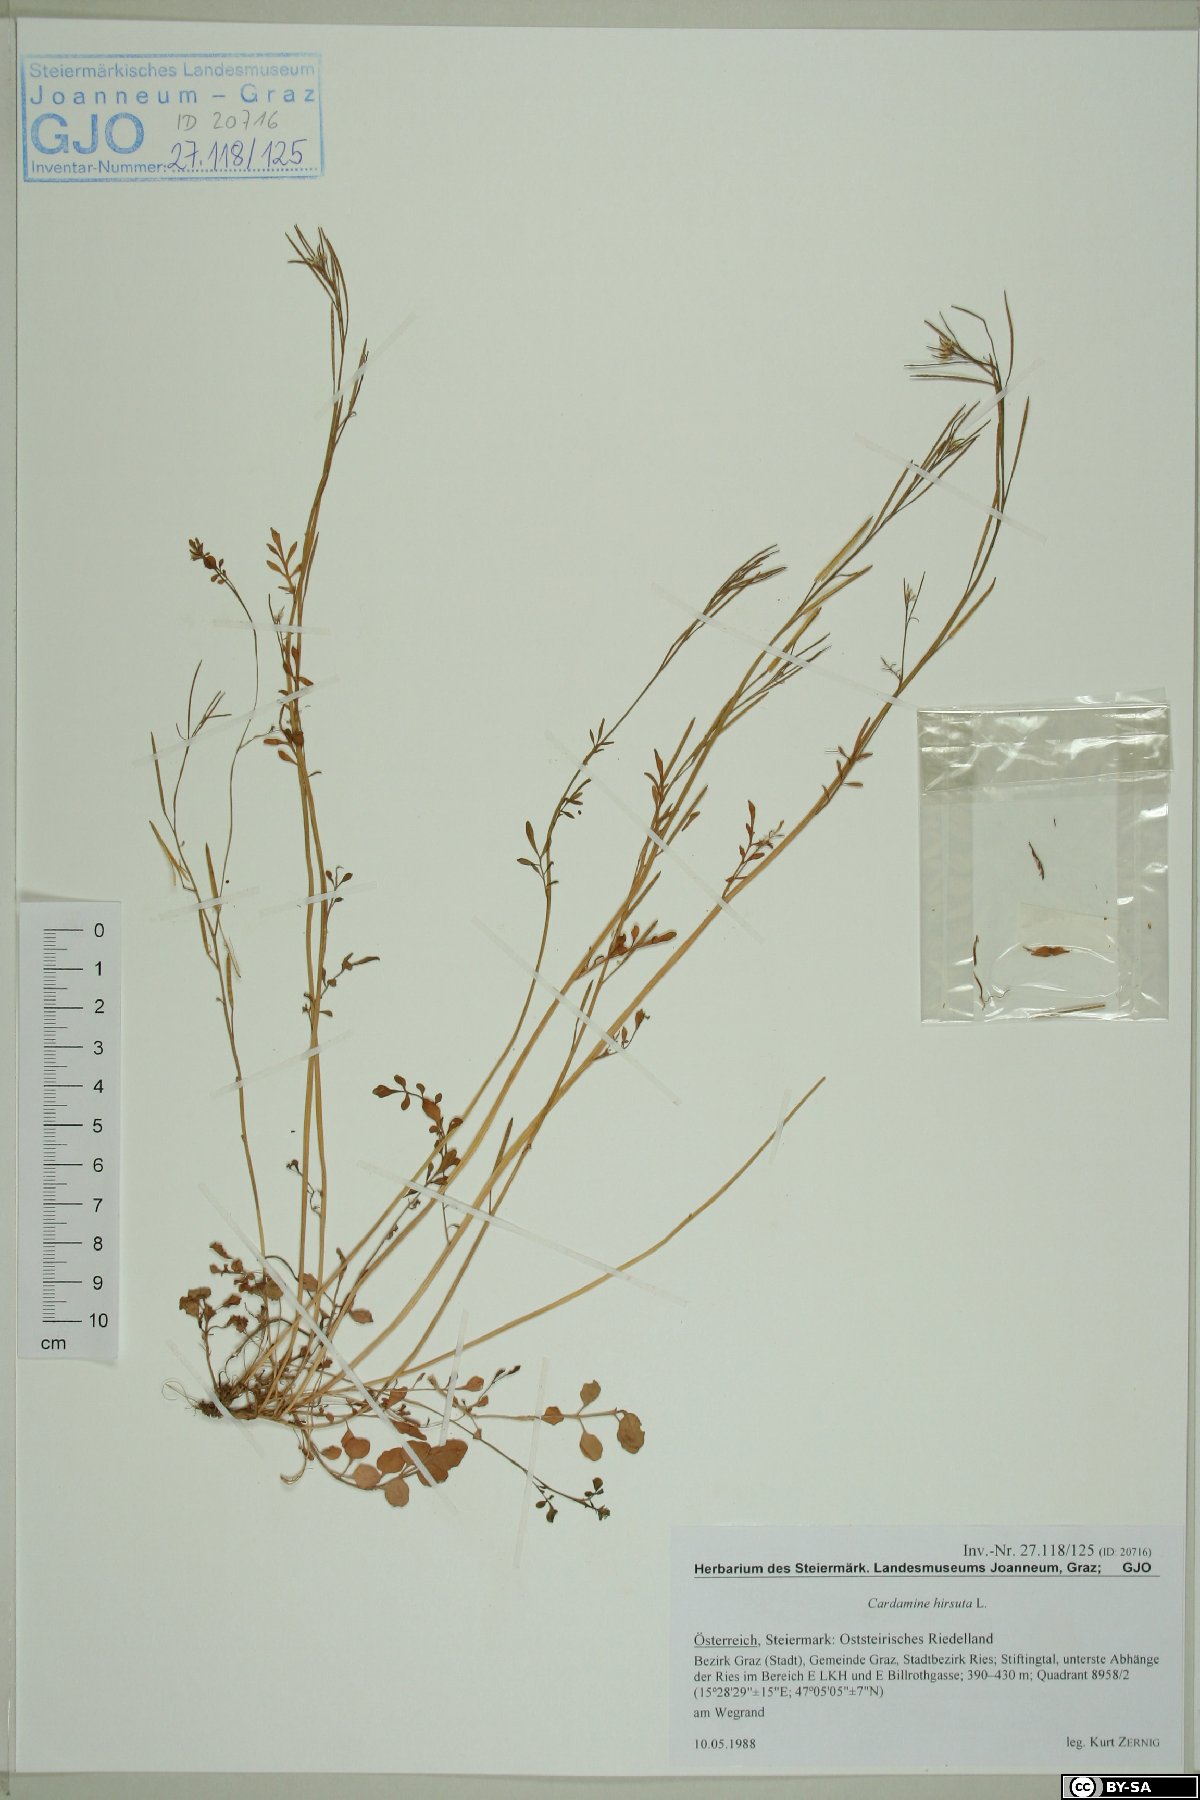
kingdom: Plantae
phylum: Tracheophyta
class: Magnoliopsida
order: Brassicales
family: Brassicaceae
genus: Cardamine
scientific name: Cardamine hirsuta
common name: Hairy bittercress
